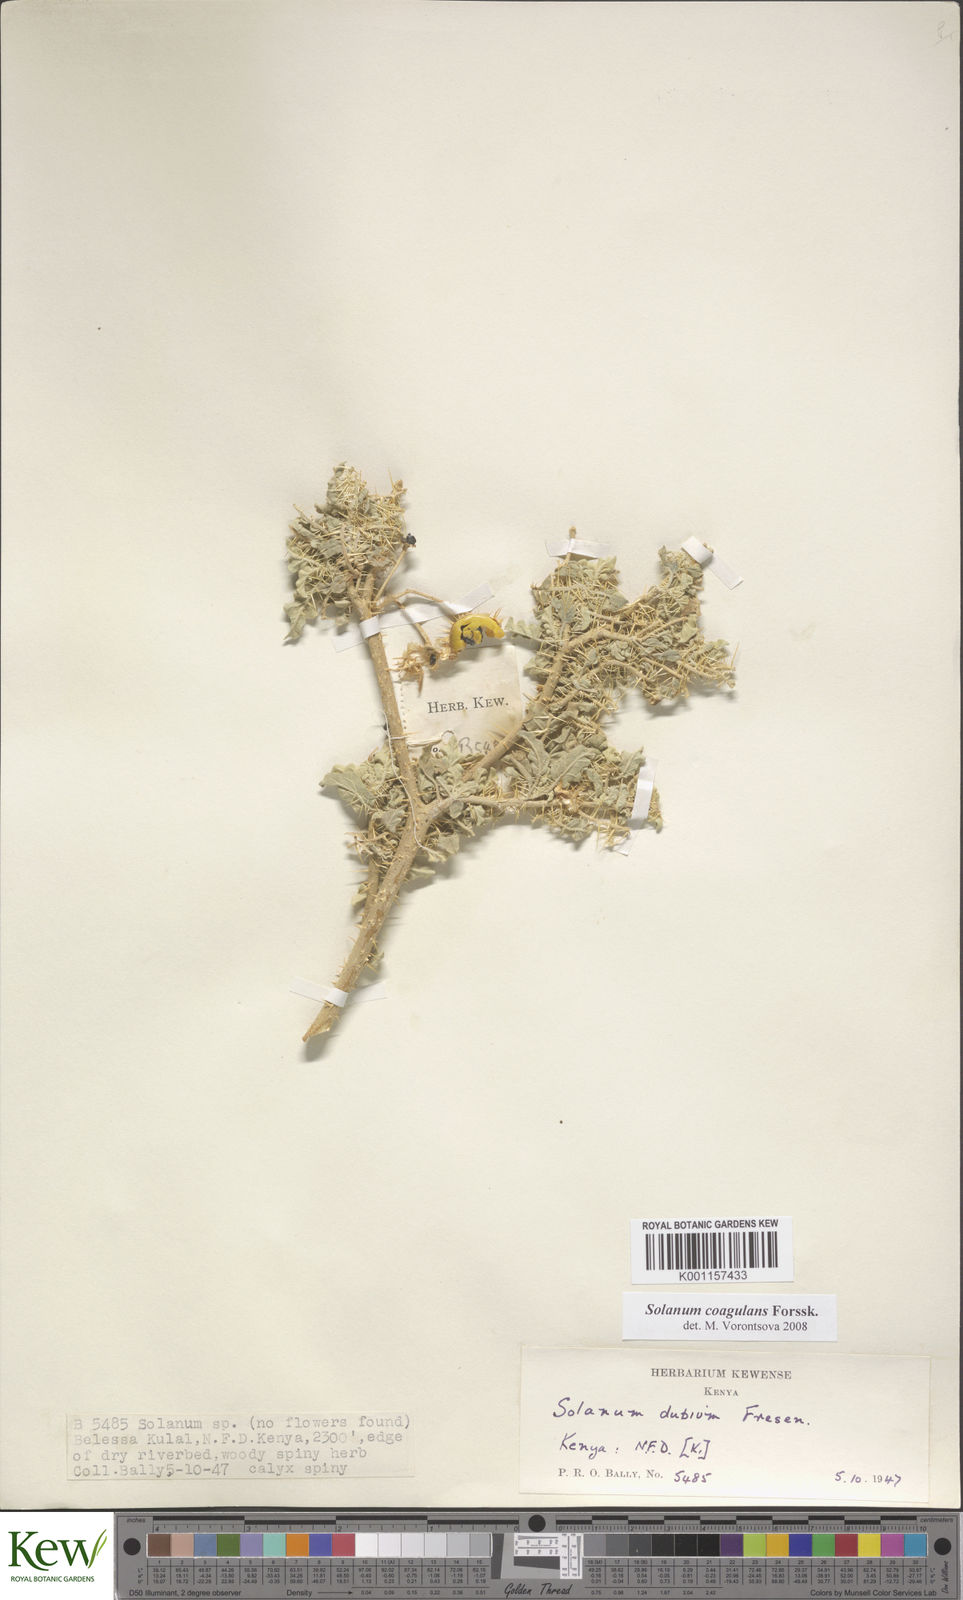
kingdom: Plantae
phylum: Tracheophyta
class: Magnoliopsida
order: Solanales
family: Solanaceae
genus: Solanum
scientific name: Solanum coagulans
